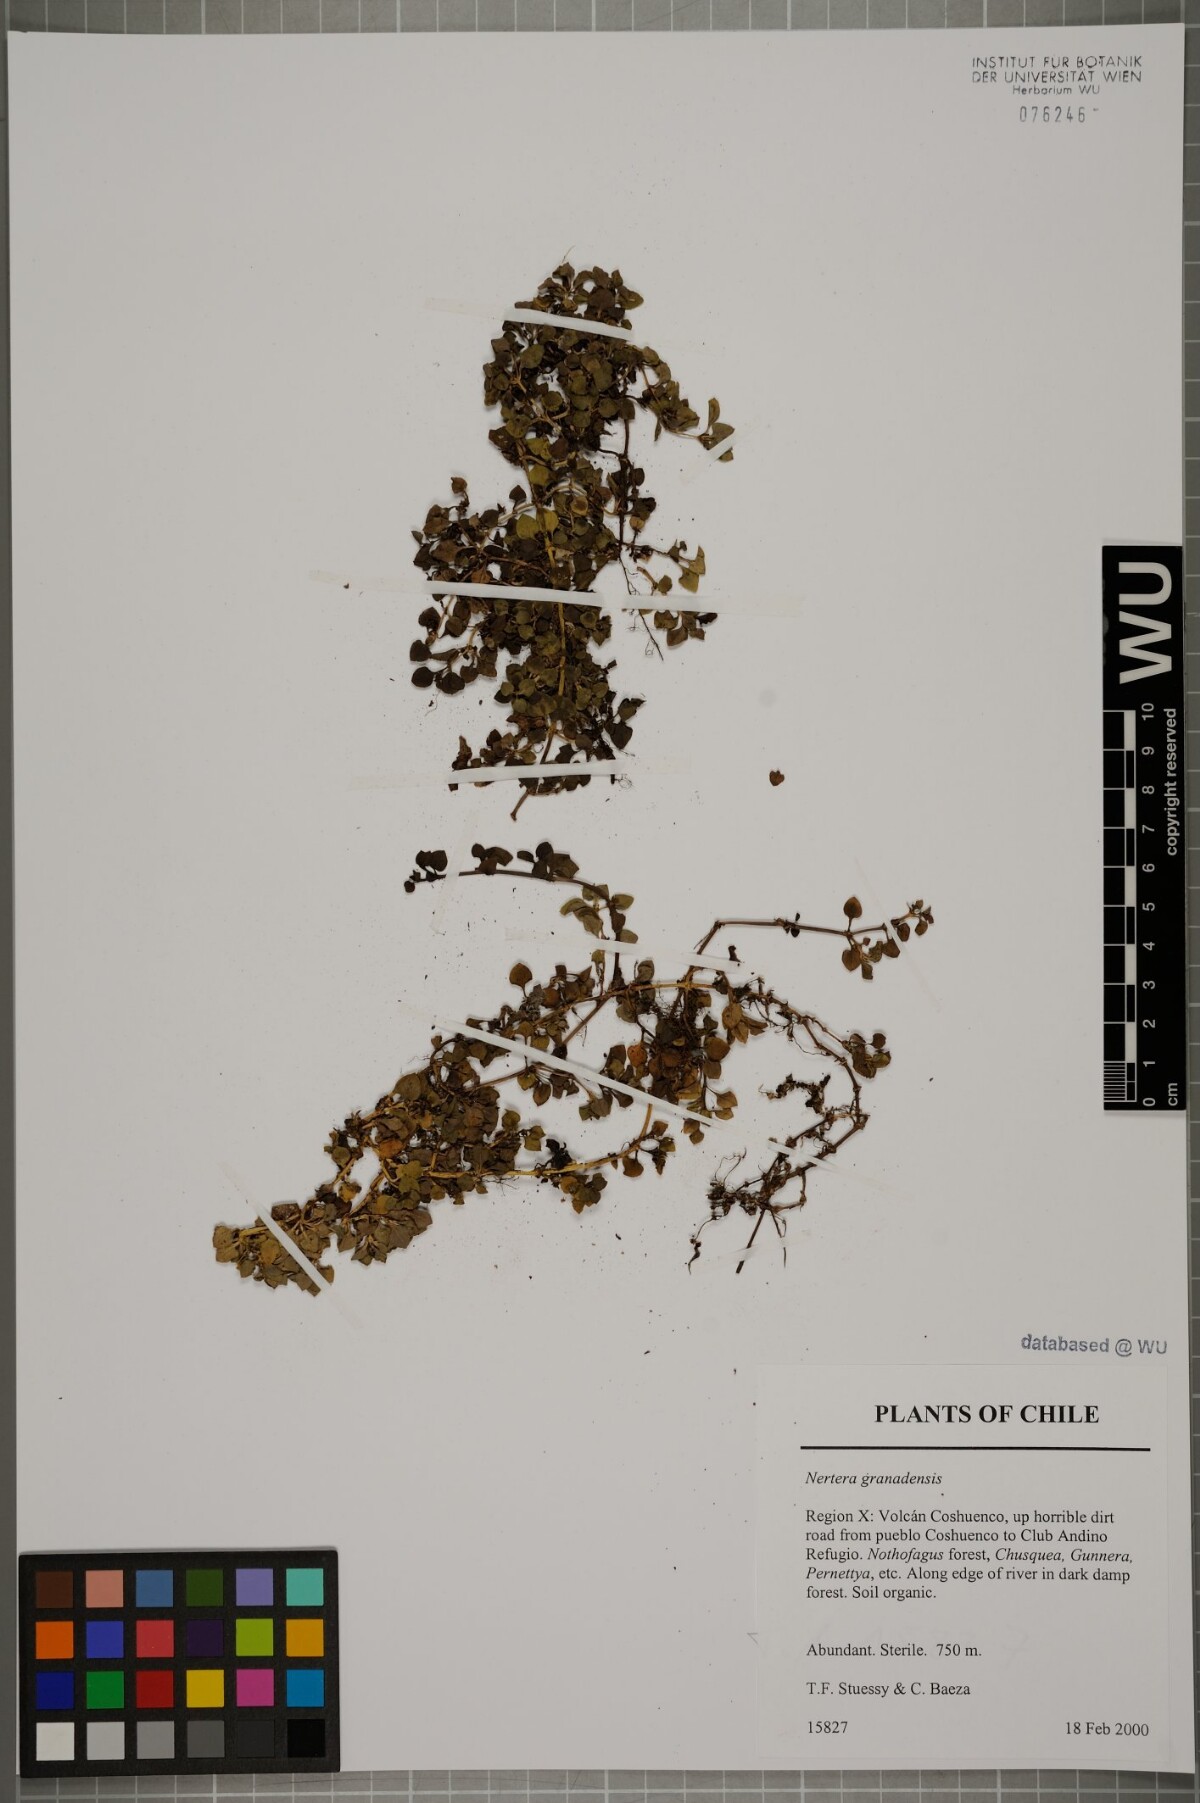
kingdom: Plantae
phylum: Tracheophyta
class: Magnoliopsida
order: Gentianales
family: Rubiaceae
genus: Nertera
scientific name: Nertera granadensis
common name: Beadplant
